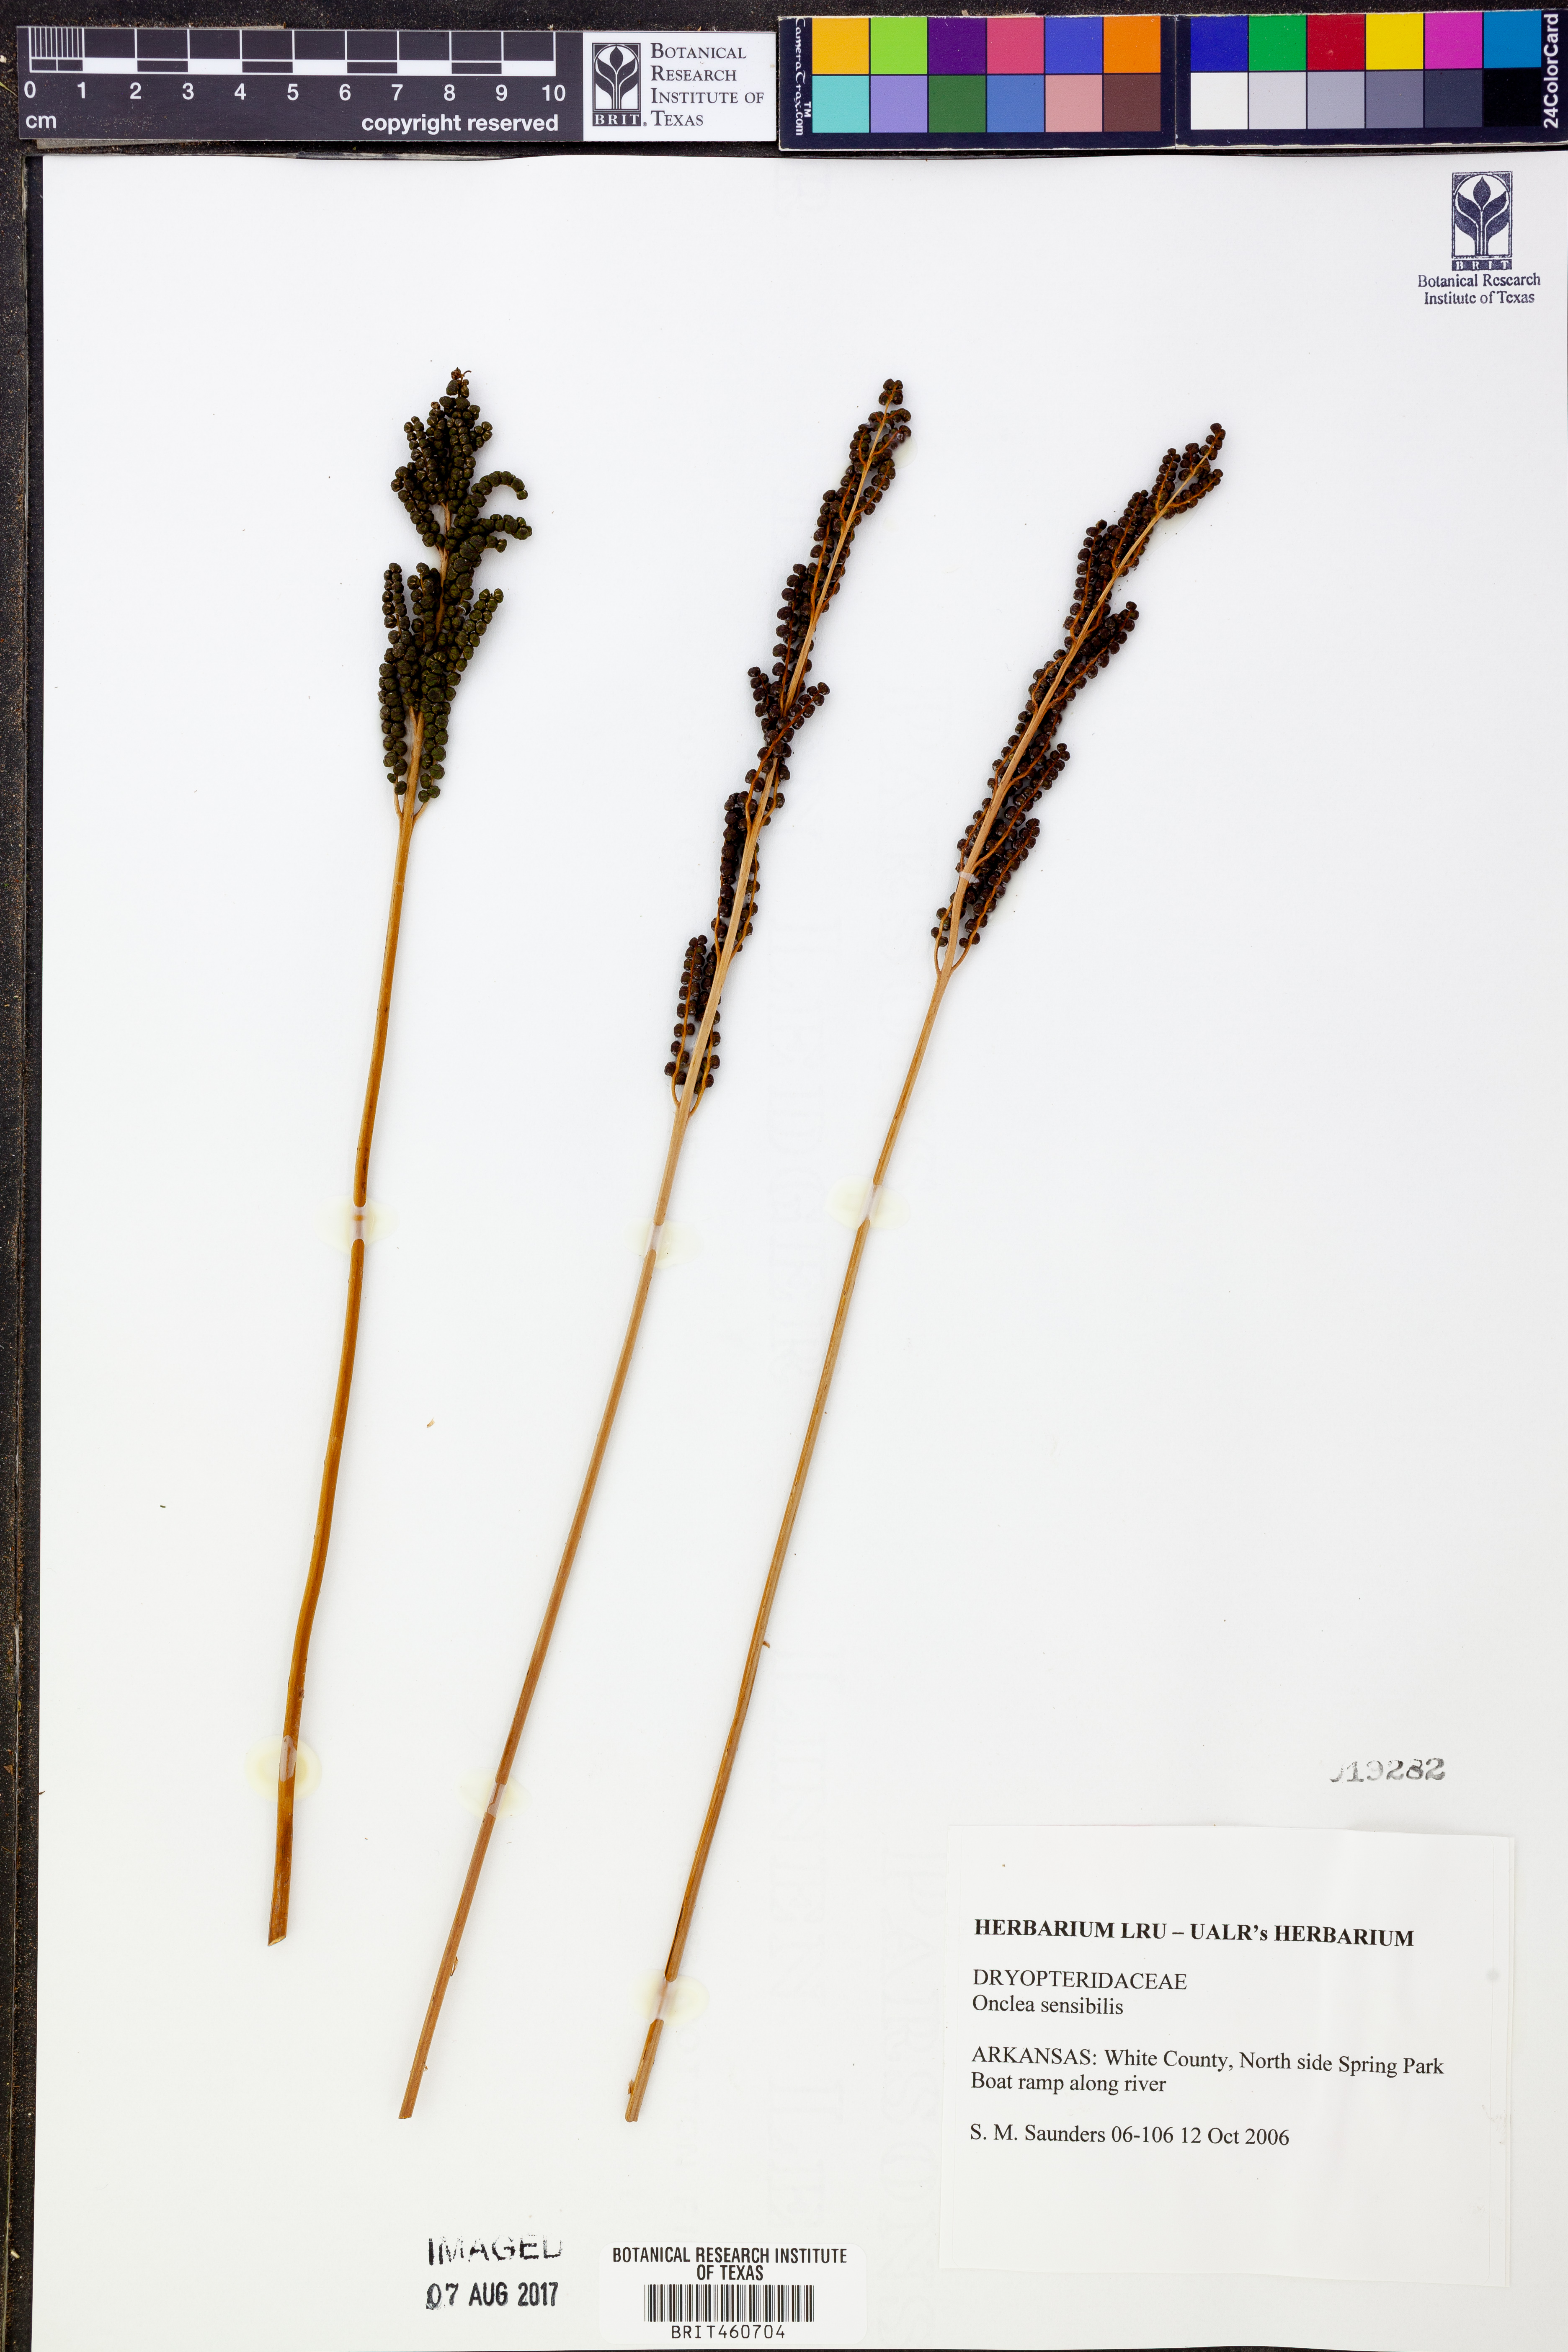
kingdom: Plantae
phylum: Tracheophyta
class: Polypodiopsida
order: Polypodiales
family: Onocleaceae
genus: Onoclea
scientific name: Onoclea sensibilis
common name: Sensitive fern
